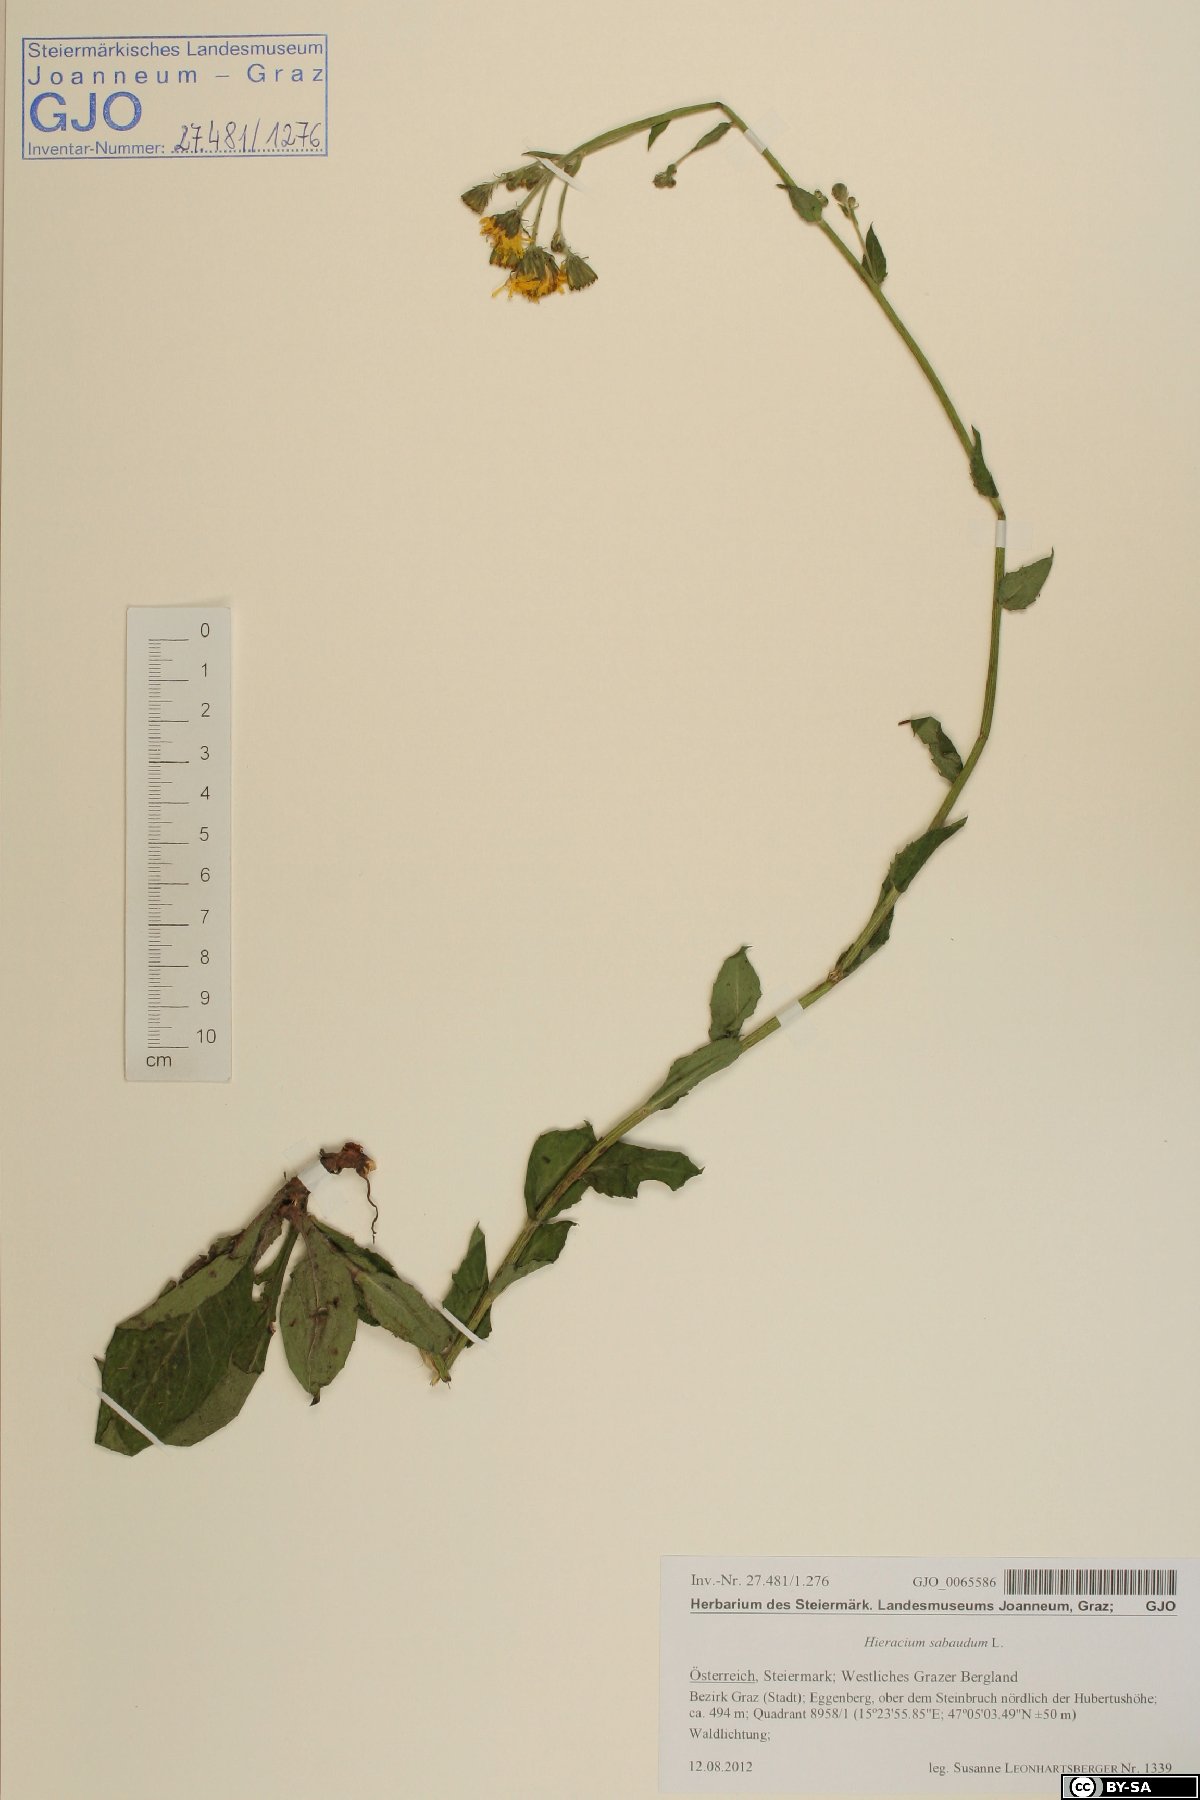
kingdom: Plantae
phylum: Tracheophyta
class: Magnoliopsida
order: Asterales
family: Asteraceae
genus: Hieracium
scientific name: Hieracium sabaudum
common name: New england hawkweed
